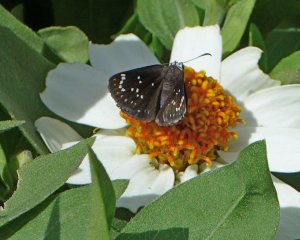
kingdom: Animalia
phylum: Arthropoda
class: Insecta
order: Lepidoptera
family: Hesperiidae
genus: Pholisora
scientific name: Pholisora catullus
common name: Common Sootywing
